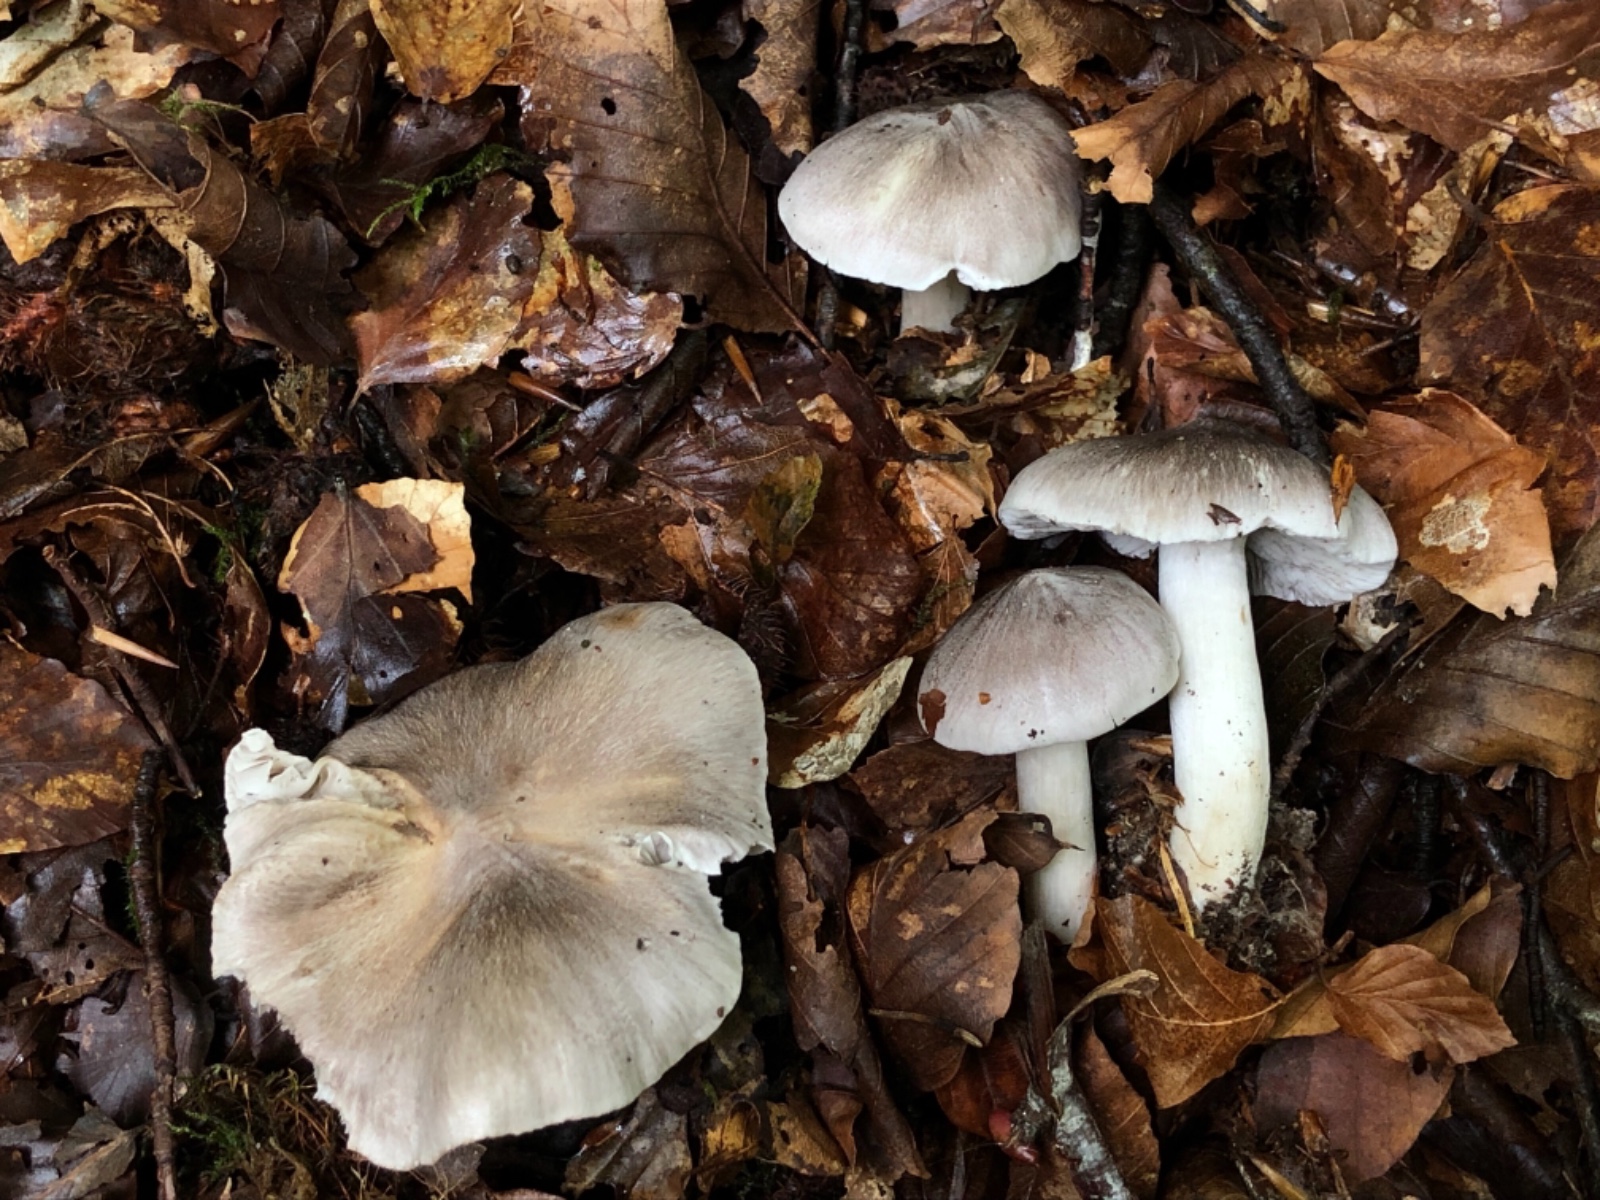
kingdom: Fungi
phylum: Basidiomycota
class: Agaricomycetes
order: Agaricales
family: Tricholomataceae
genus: Tricholoma
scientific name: Tricholoma sciodes
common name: stribet ridderhat
